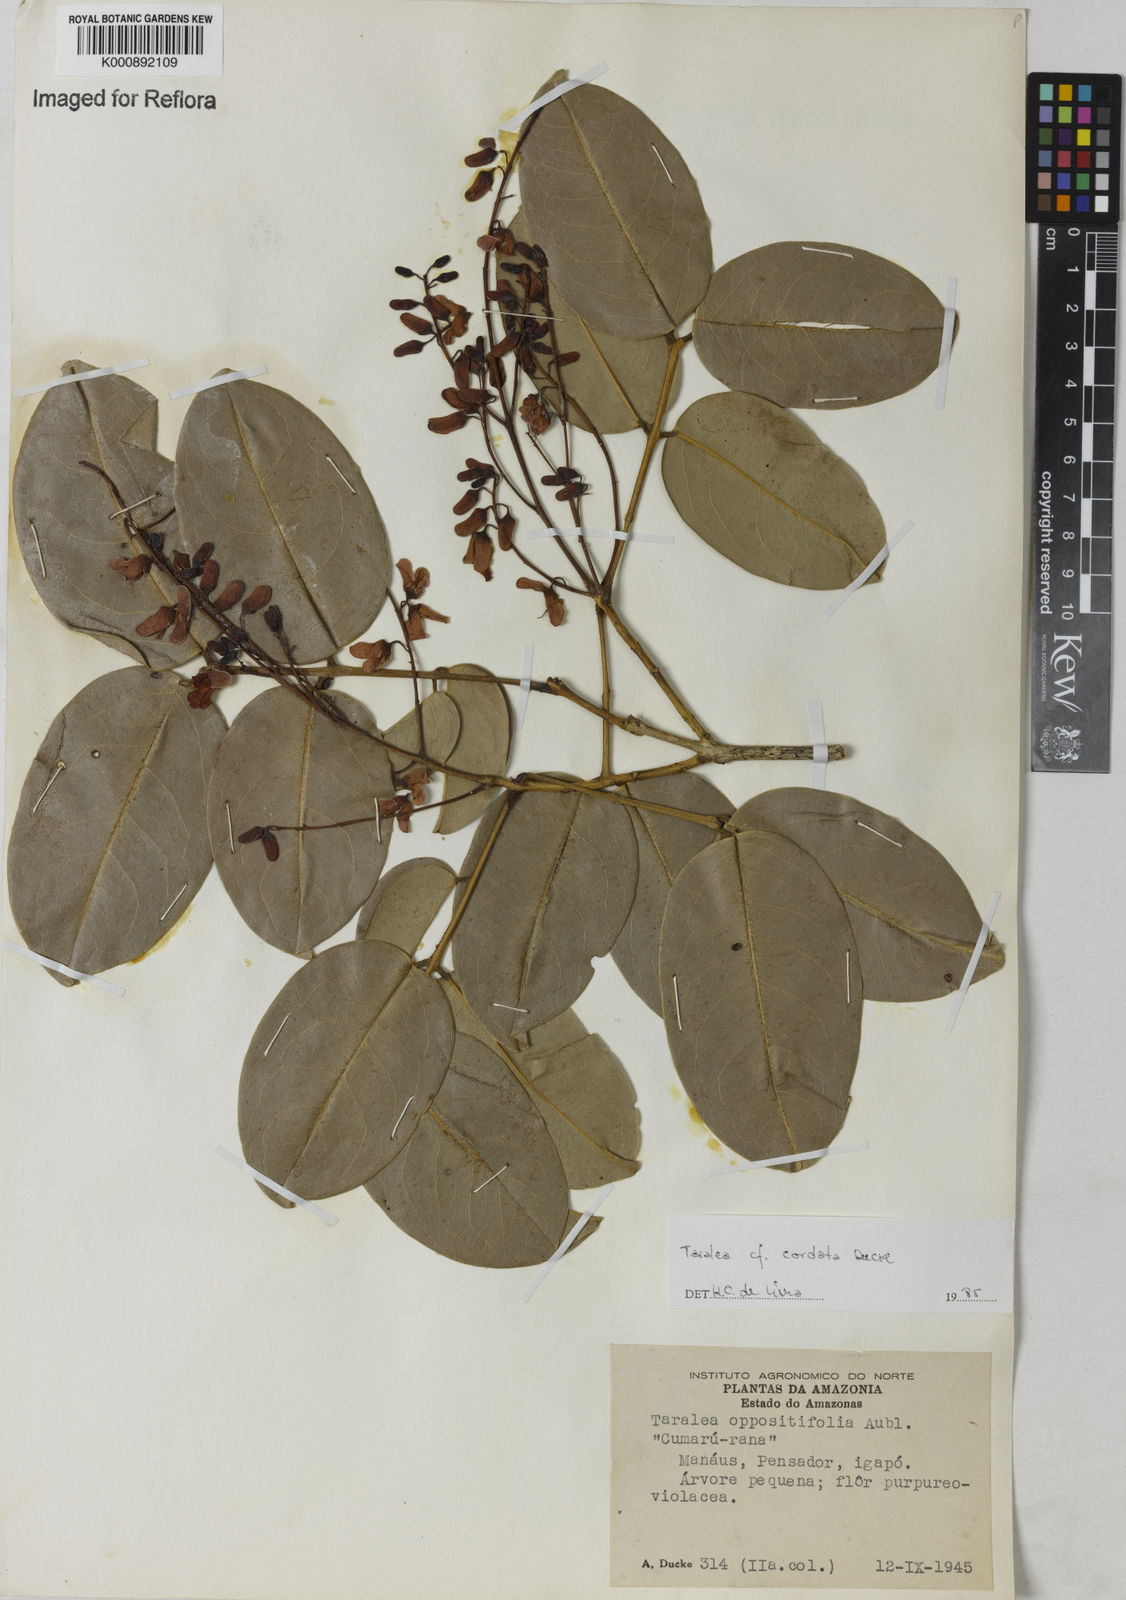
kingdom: Plantae
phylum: Tracheophyta
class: Magnoliopsida
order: Fabales
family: Fabaceae
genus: Taralea
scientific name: Taralea cordata
